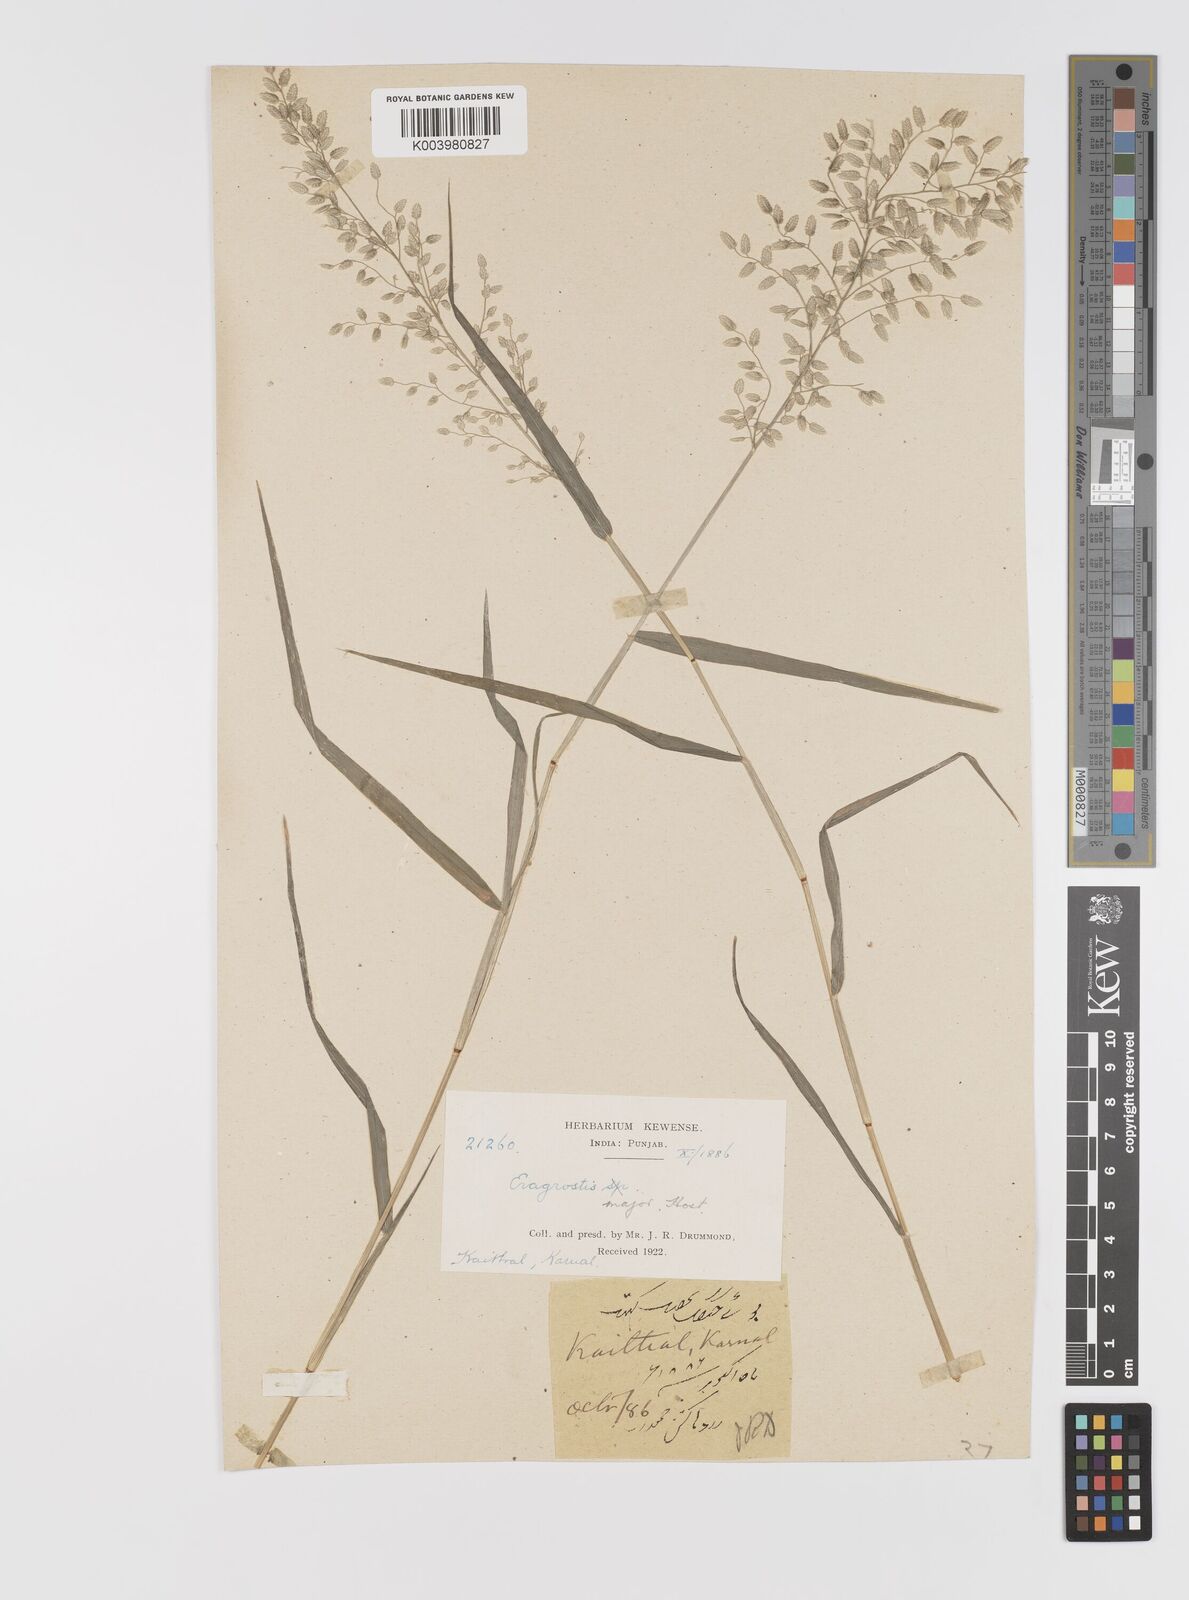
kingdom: Plantae
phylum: Tracheophyta
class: Liliopsida
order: Poales
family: Poaceae
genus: Eragrostis
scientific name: Eragrostis cilianensis
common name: Stinkgrass
